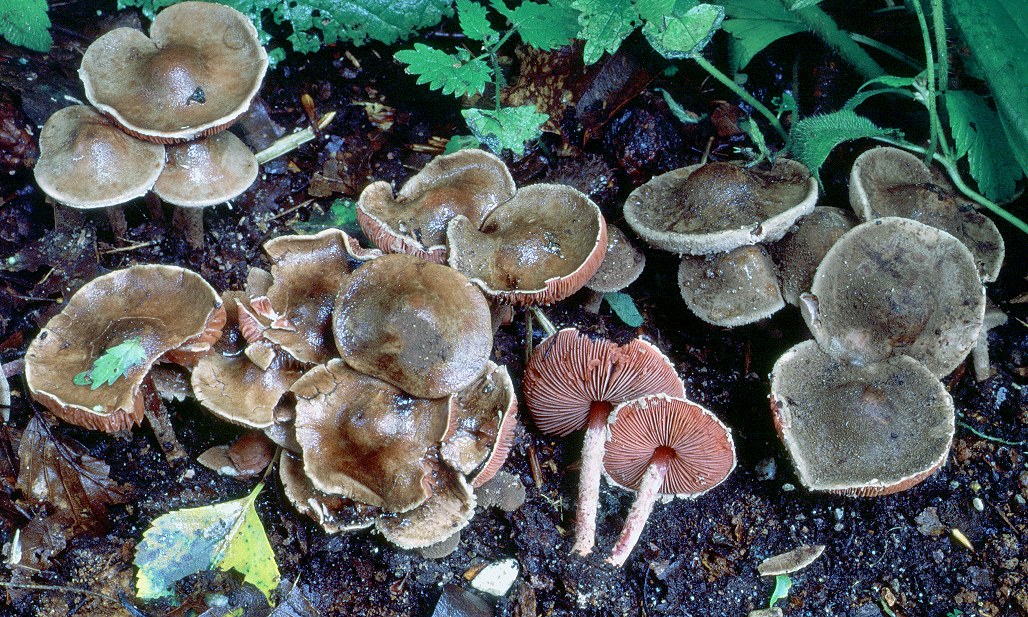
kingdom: Fungi
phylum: Basidiomycota
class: Agaricomycetes
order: Agaricales
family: Agaricaceae
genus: Melanophyllum
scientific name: Melanophyllum haematospermum
